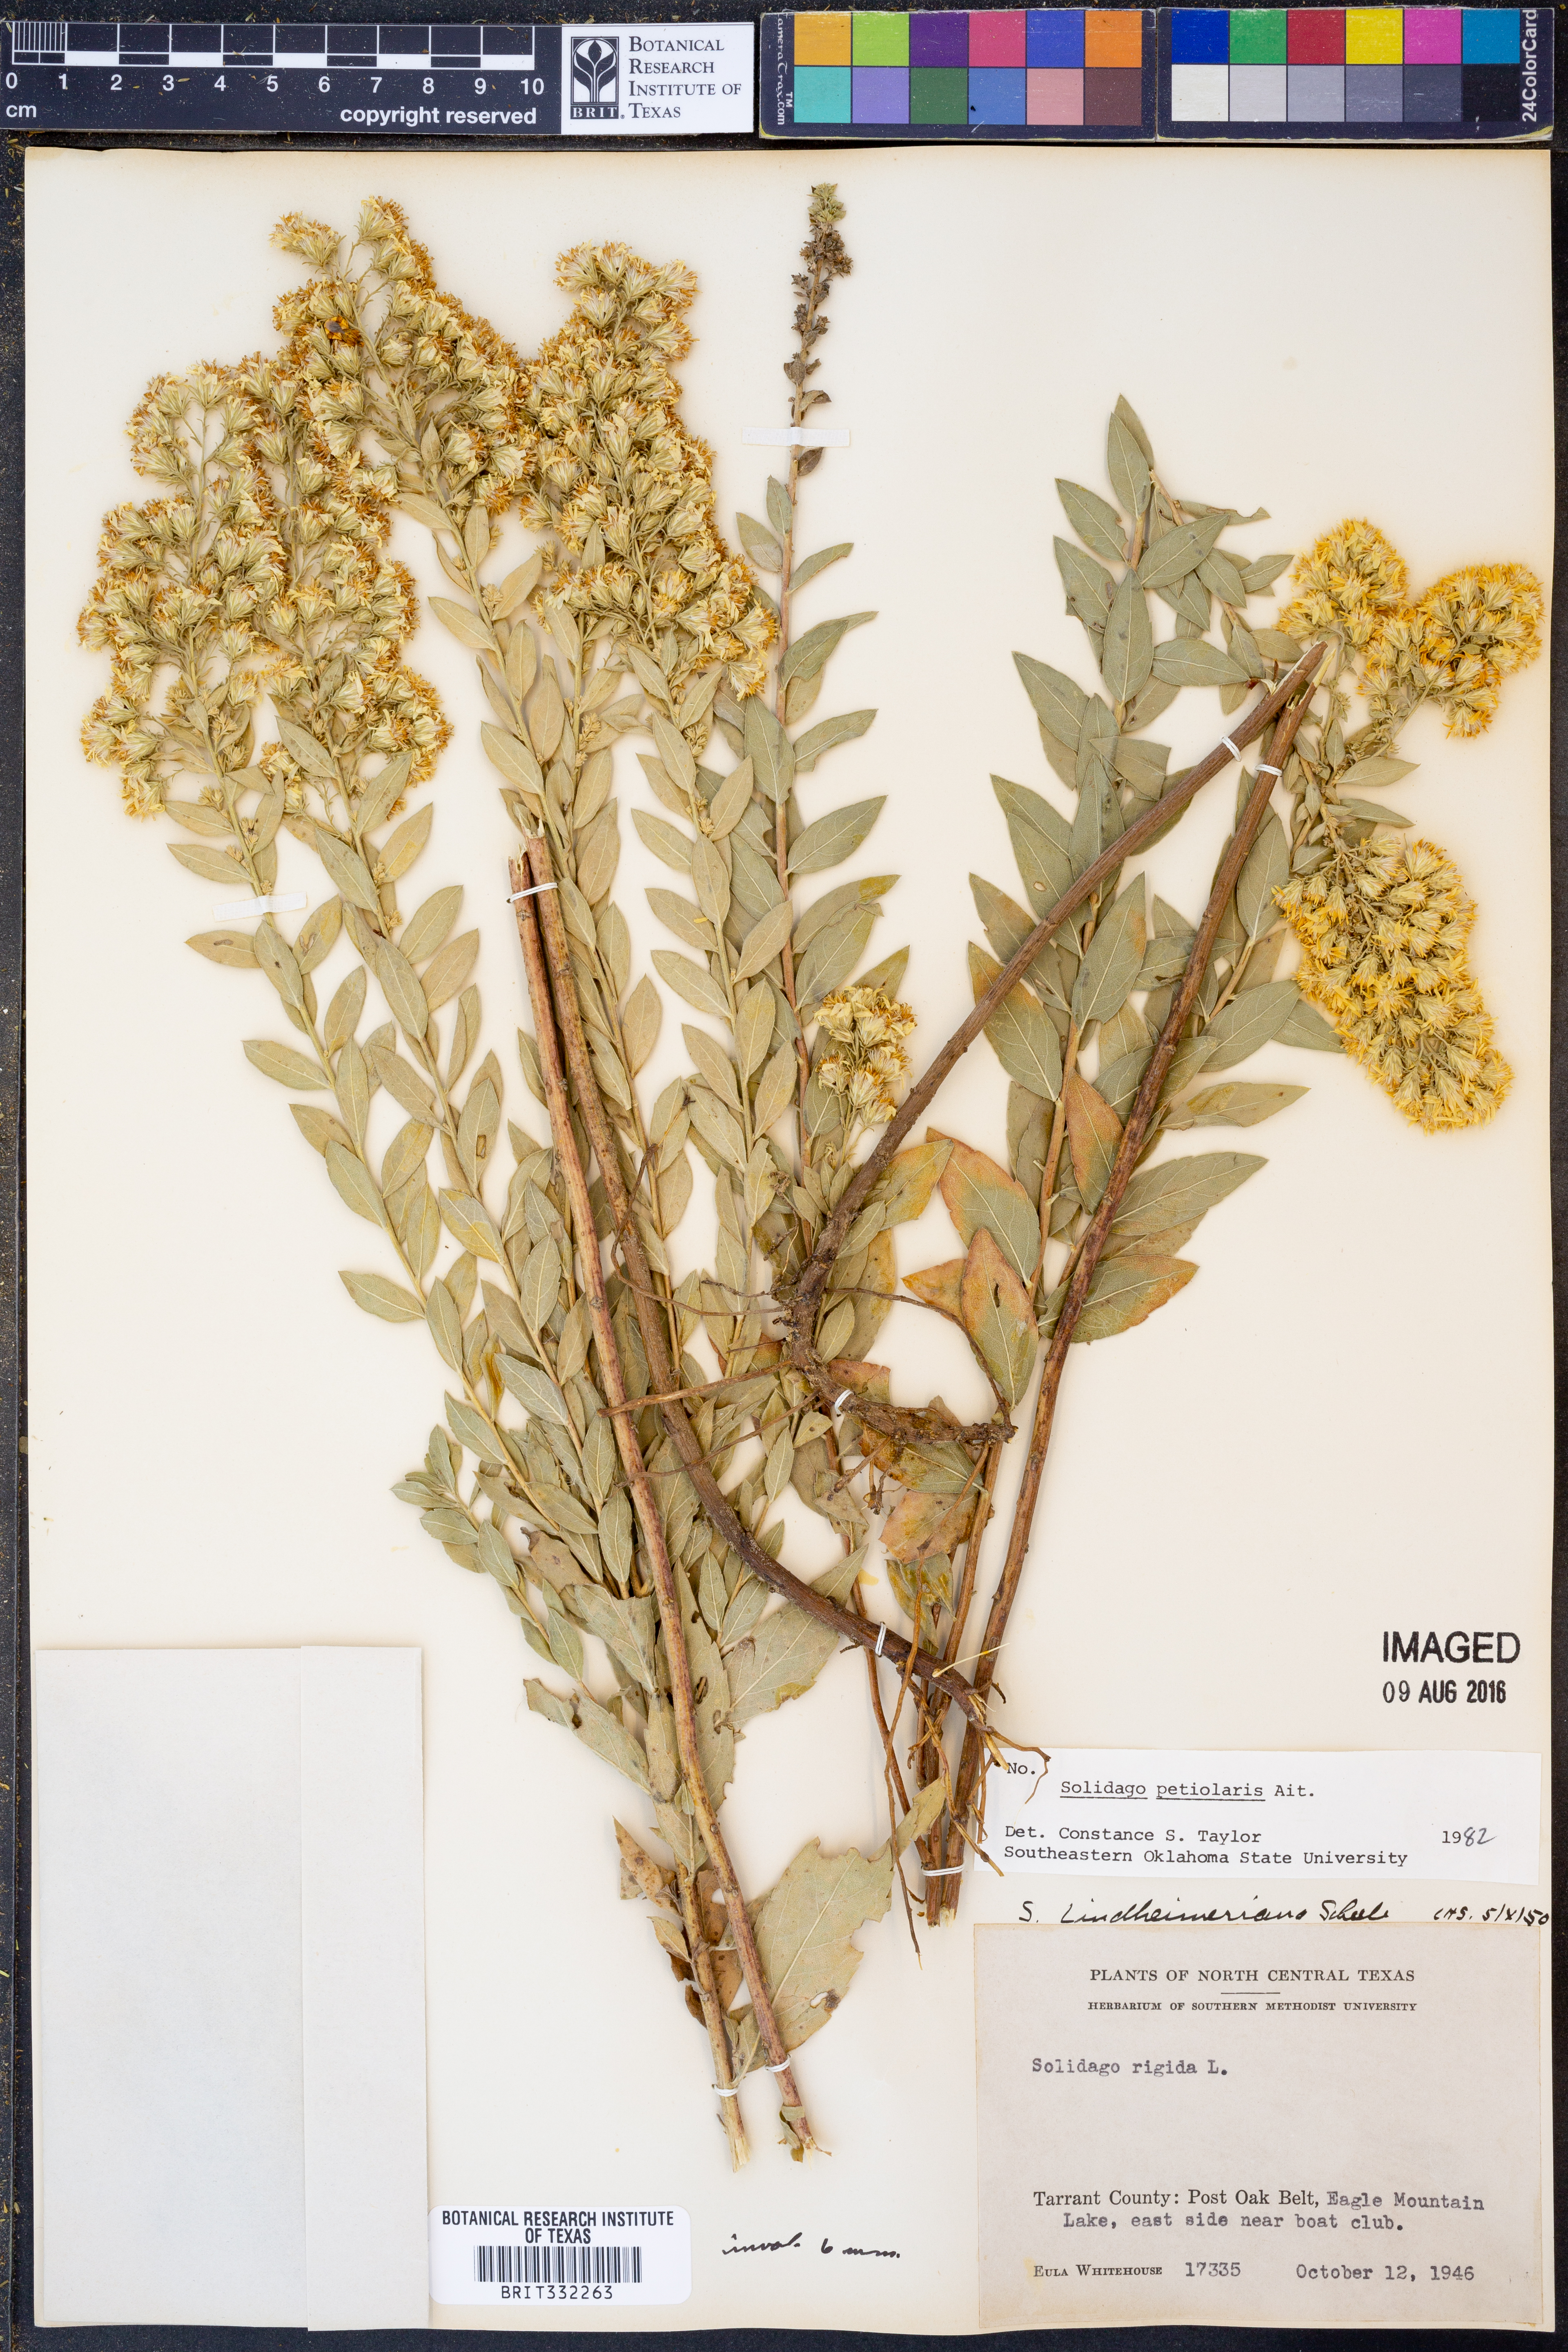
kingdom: Plantae
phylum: Tracheophyta
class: Magnoliopsida
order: Asterales
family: Asteraceae
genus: Solidago
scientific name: Solidago petiolaris
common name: Downy ragged goldenrod
